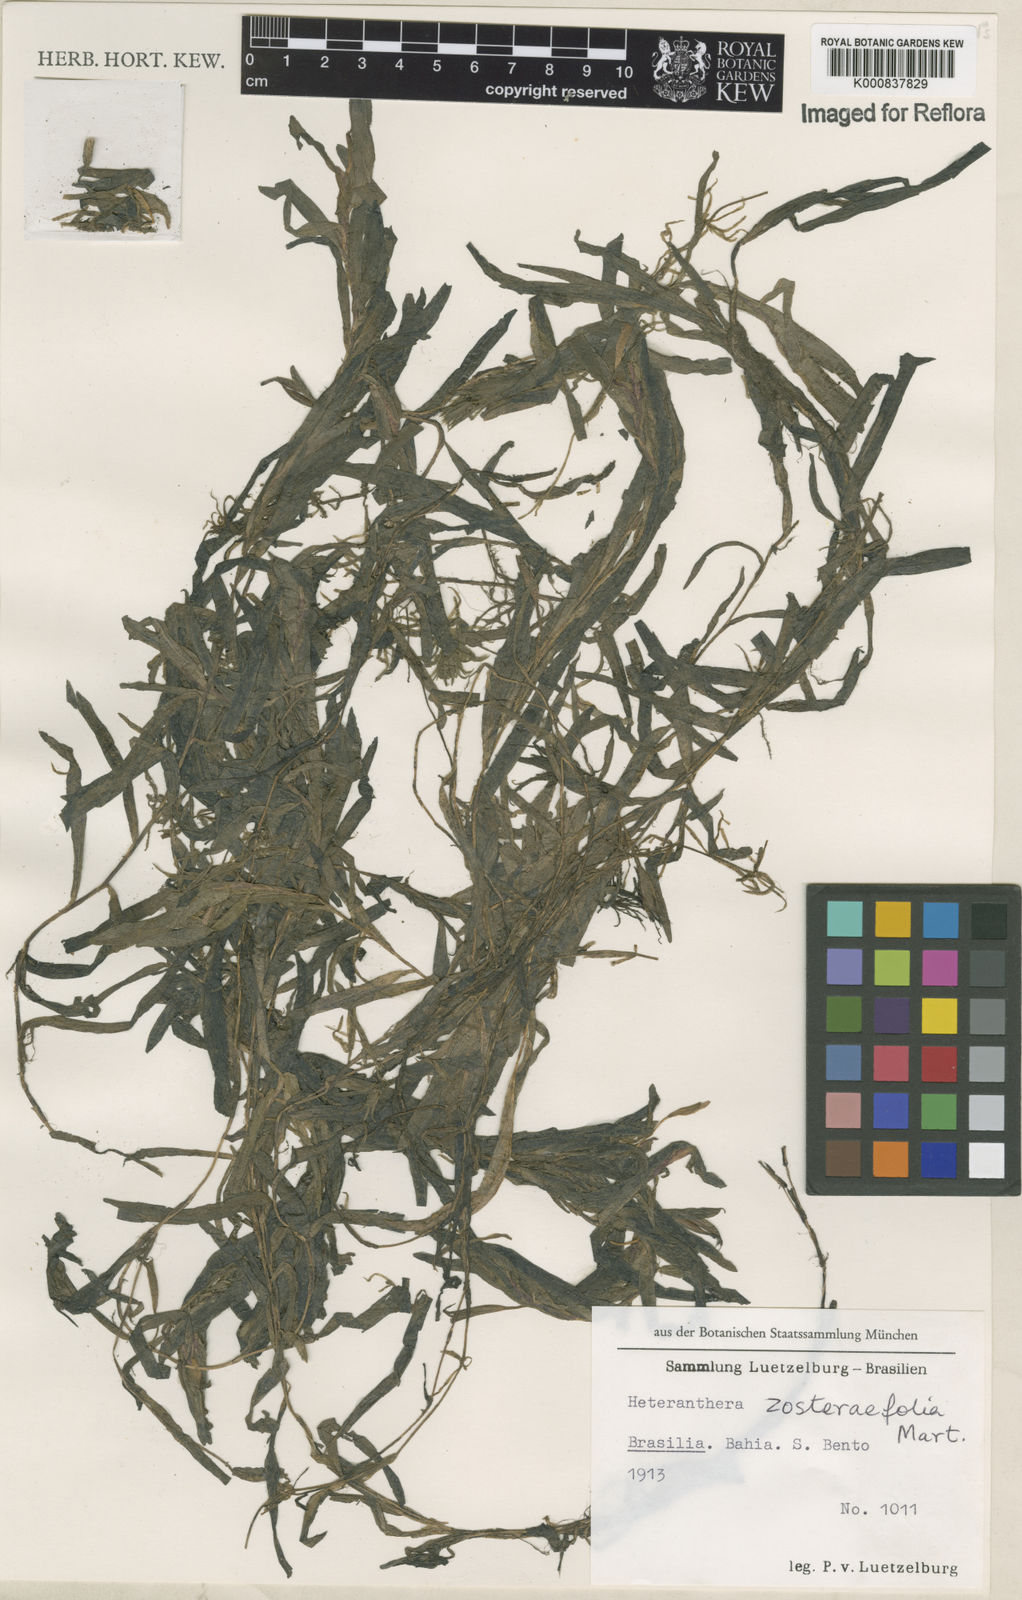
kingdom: Plantae
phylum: Tracheophyta
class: Liliopsida
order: Commelinales
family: Pontederiaceae
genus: Heteranthera
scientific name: Heteranthera zosterifolia
